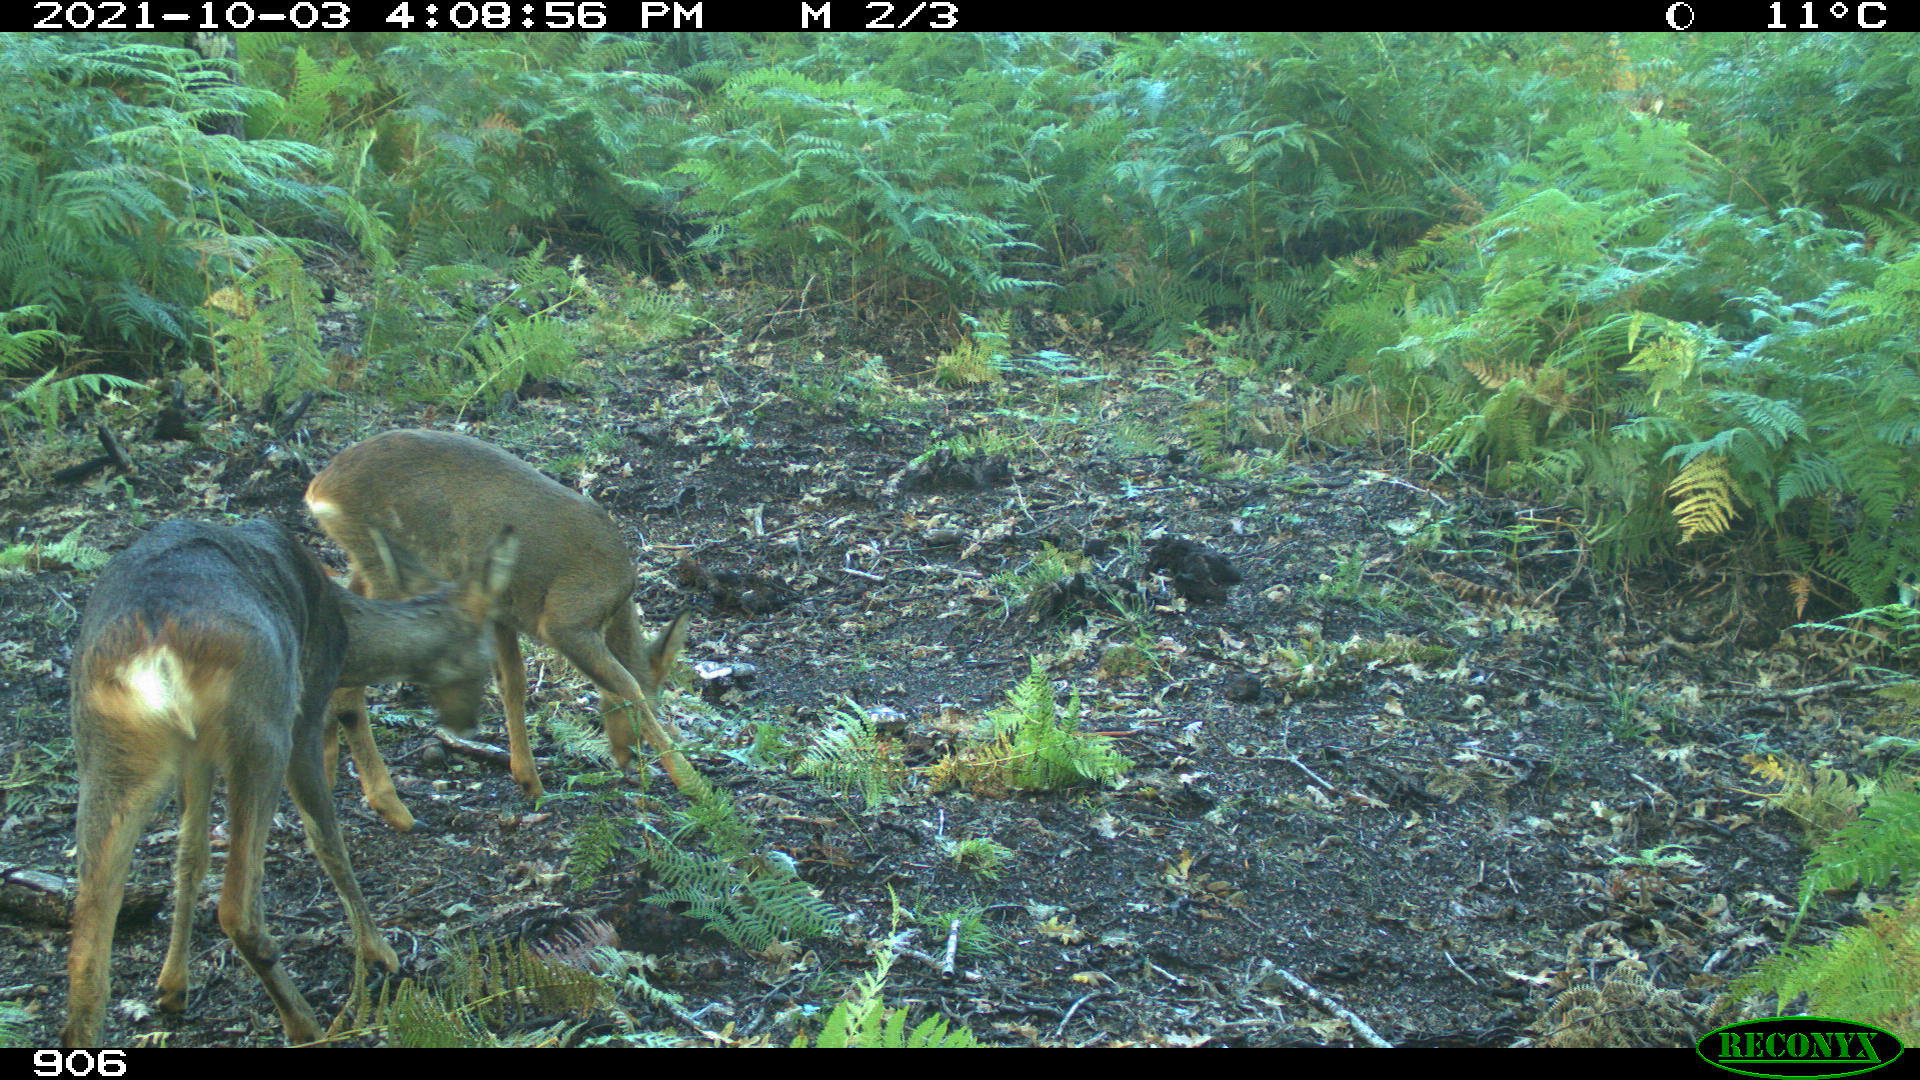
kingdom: Animalia
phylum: Chordata
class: Mammalia
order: Artiodactyla
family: Cervidae
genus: Capreolus
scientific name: Capreolus capreolus
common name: Western roe deer
